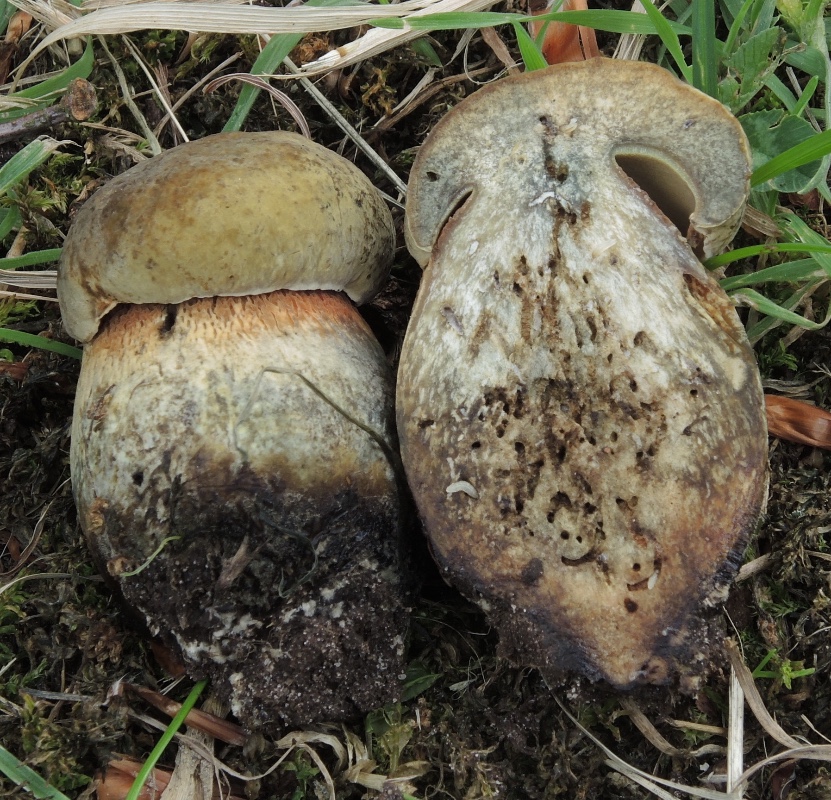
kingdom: Fungi
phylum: Basidiomycota
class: Agaricomycetes
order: Boletales
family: Boletaceae
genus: Suillellus
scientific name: Suillellus luridus
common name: netstokket indigorørhat
